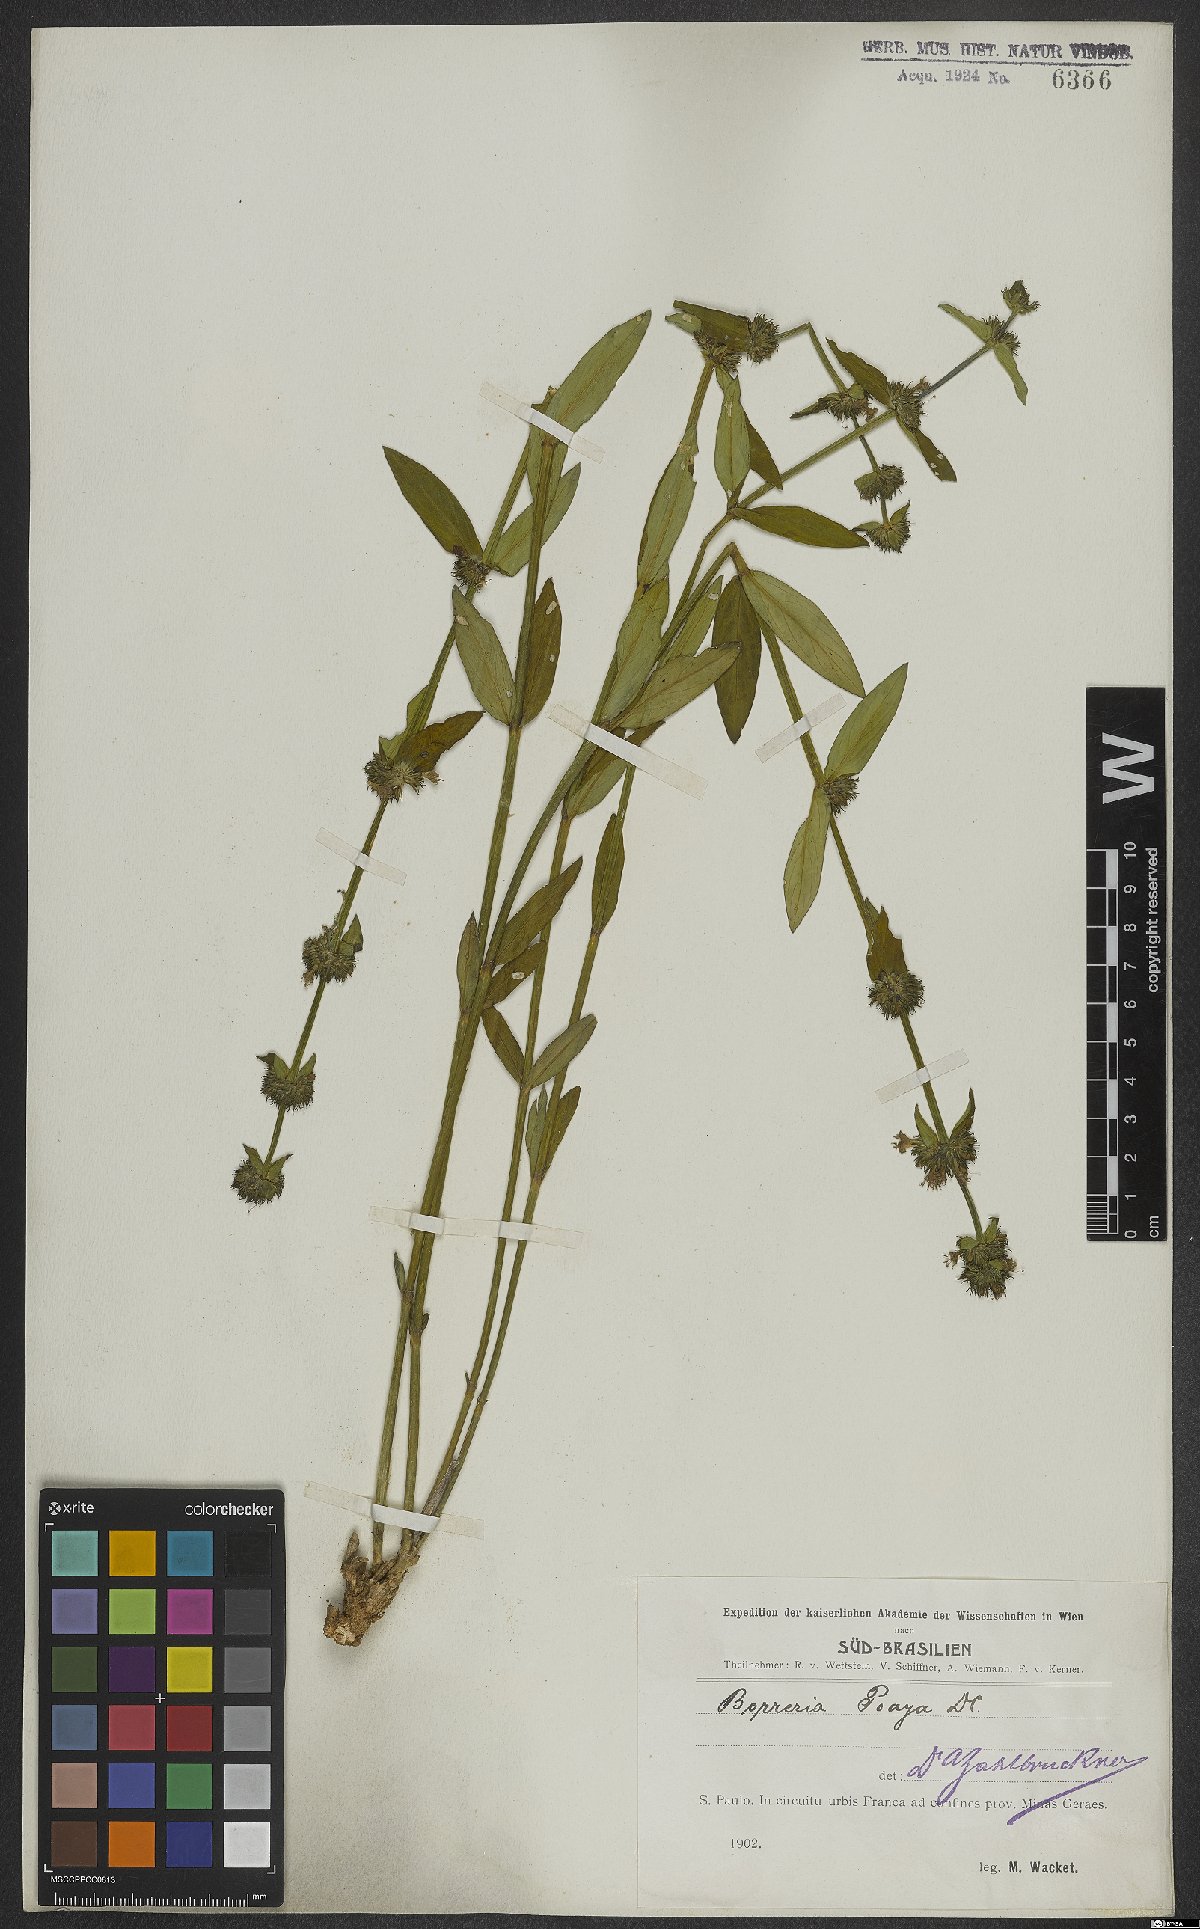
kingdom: Plantae
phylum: Tracheophyta
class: Magnoliopsida
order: Gentianales
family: Rubiaceae
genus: Spermacoce
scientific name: Spermacoce poaya
